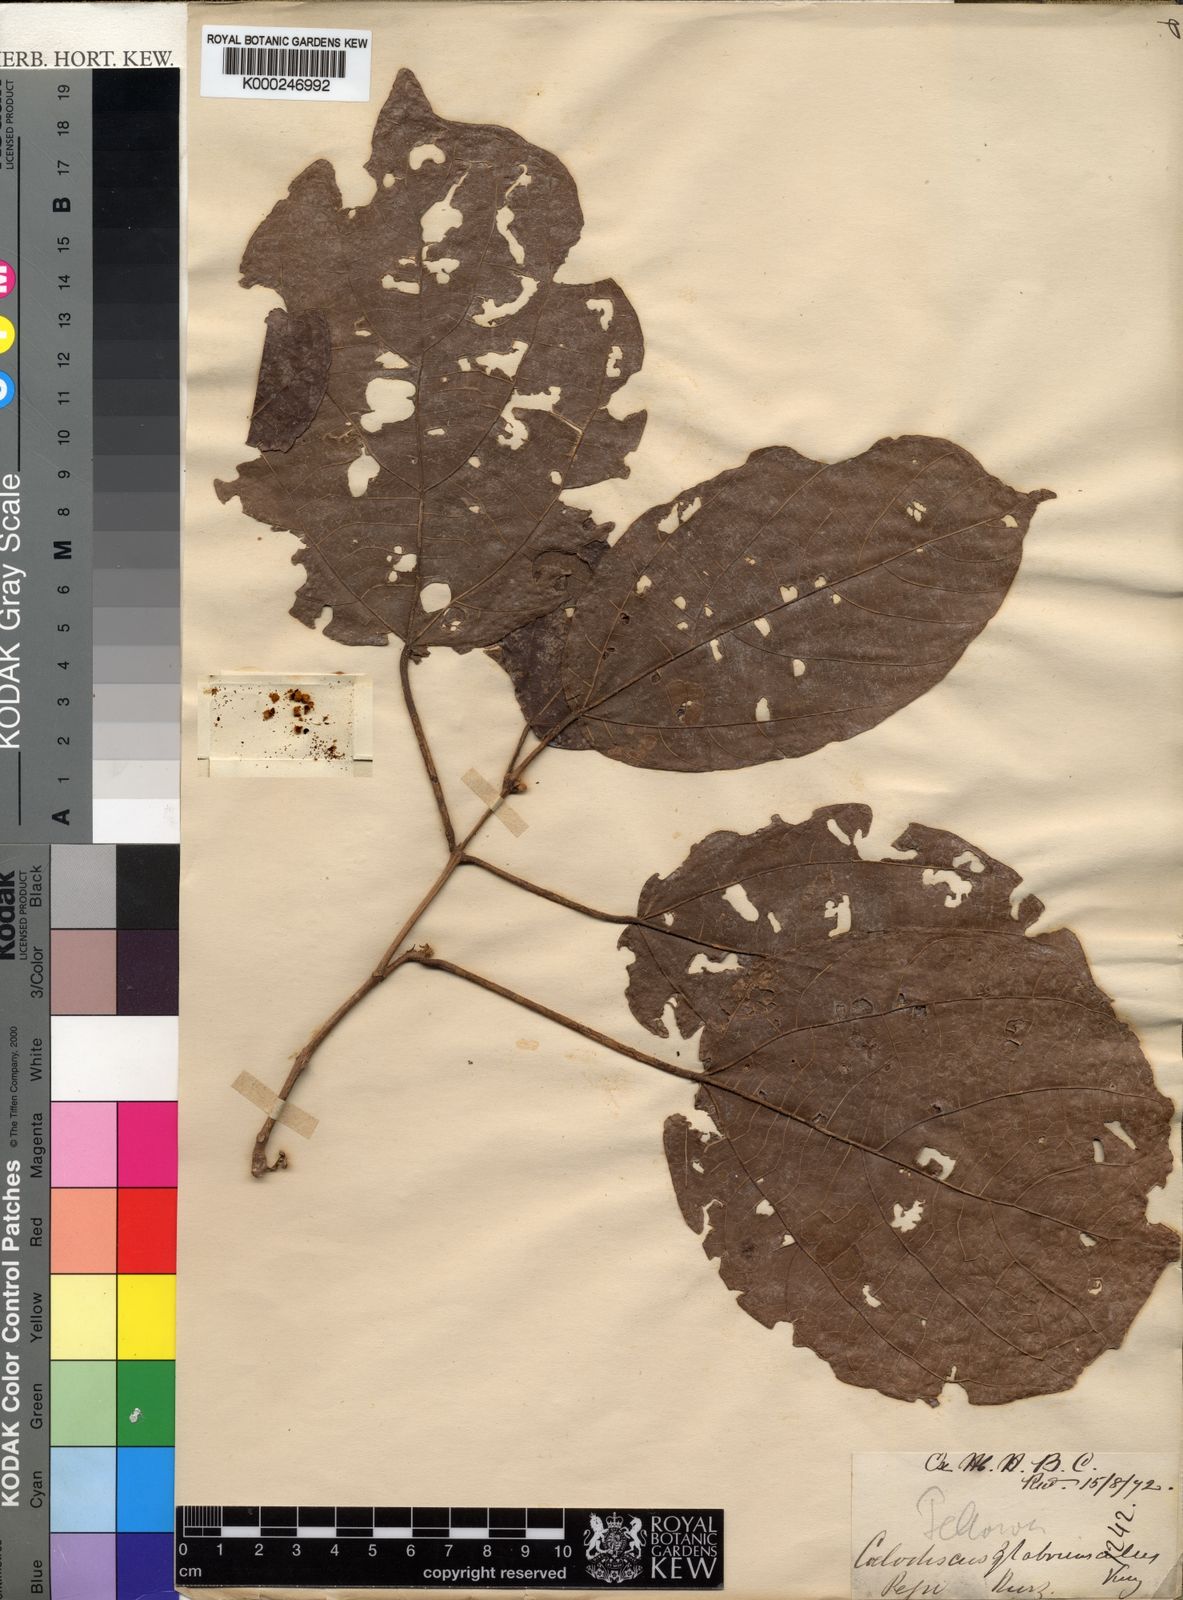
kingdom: Plantae
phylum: Tracheophyta
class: Magnoliopsida
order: Malpighiales
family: Euphorbiaceae
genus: Mallotus
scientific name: Mallotus glabriusculus
